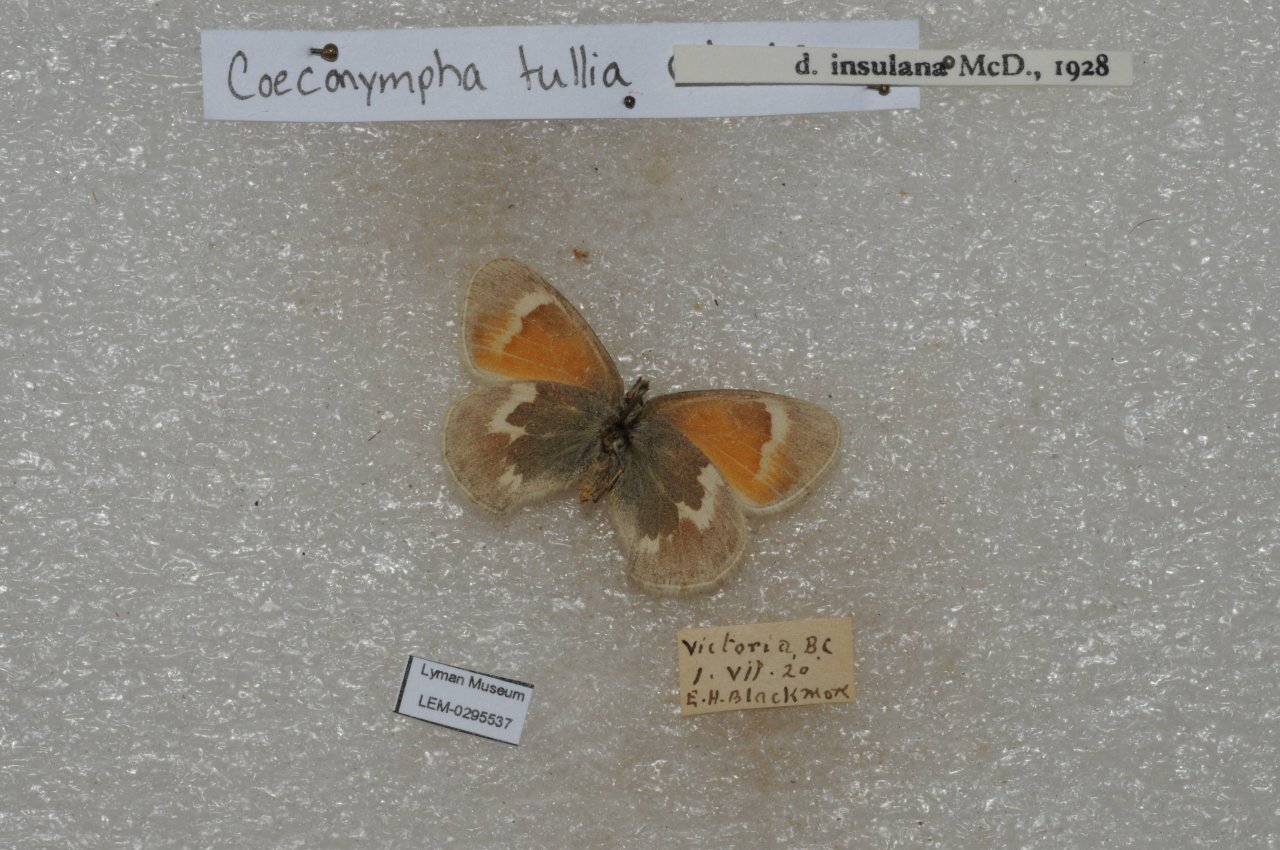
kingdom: Animalia
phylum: Arthropoda
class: Insecta
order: Lepidoptera
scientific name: Lepidoptera
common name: Butterflies
